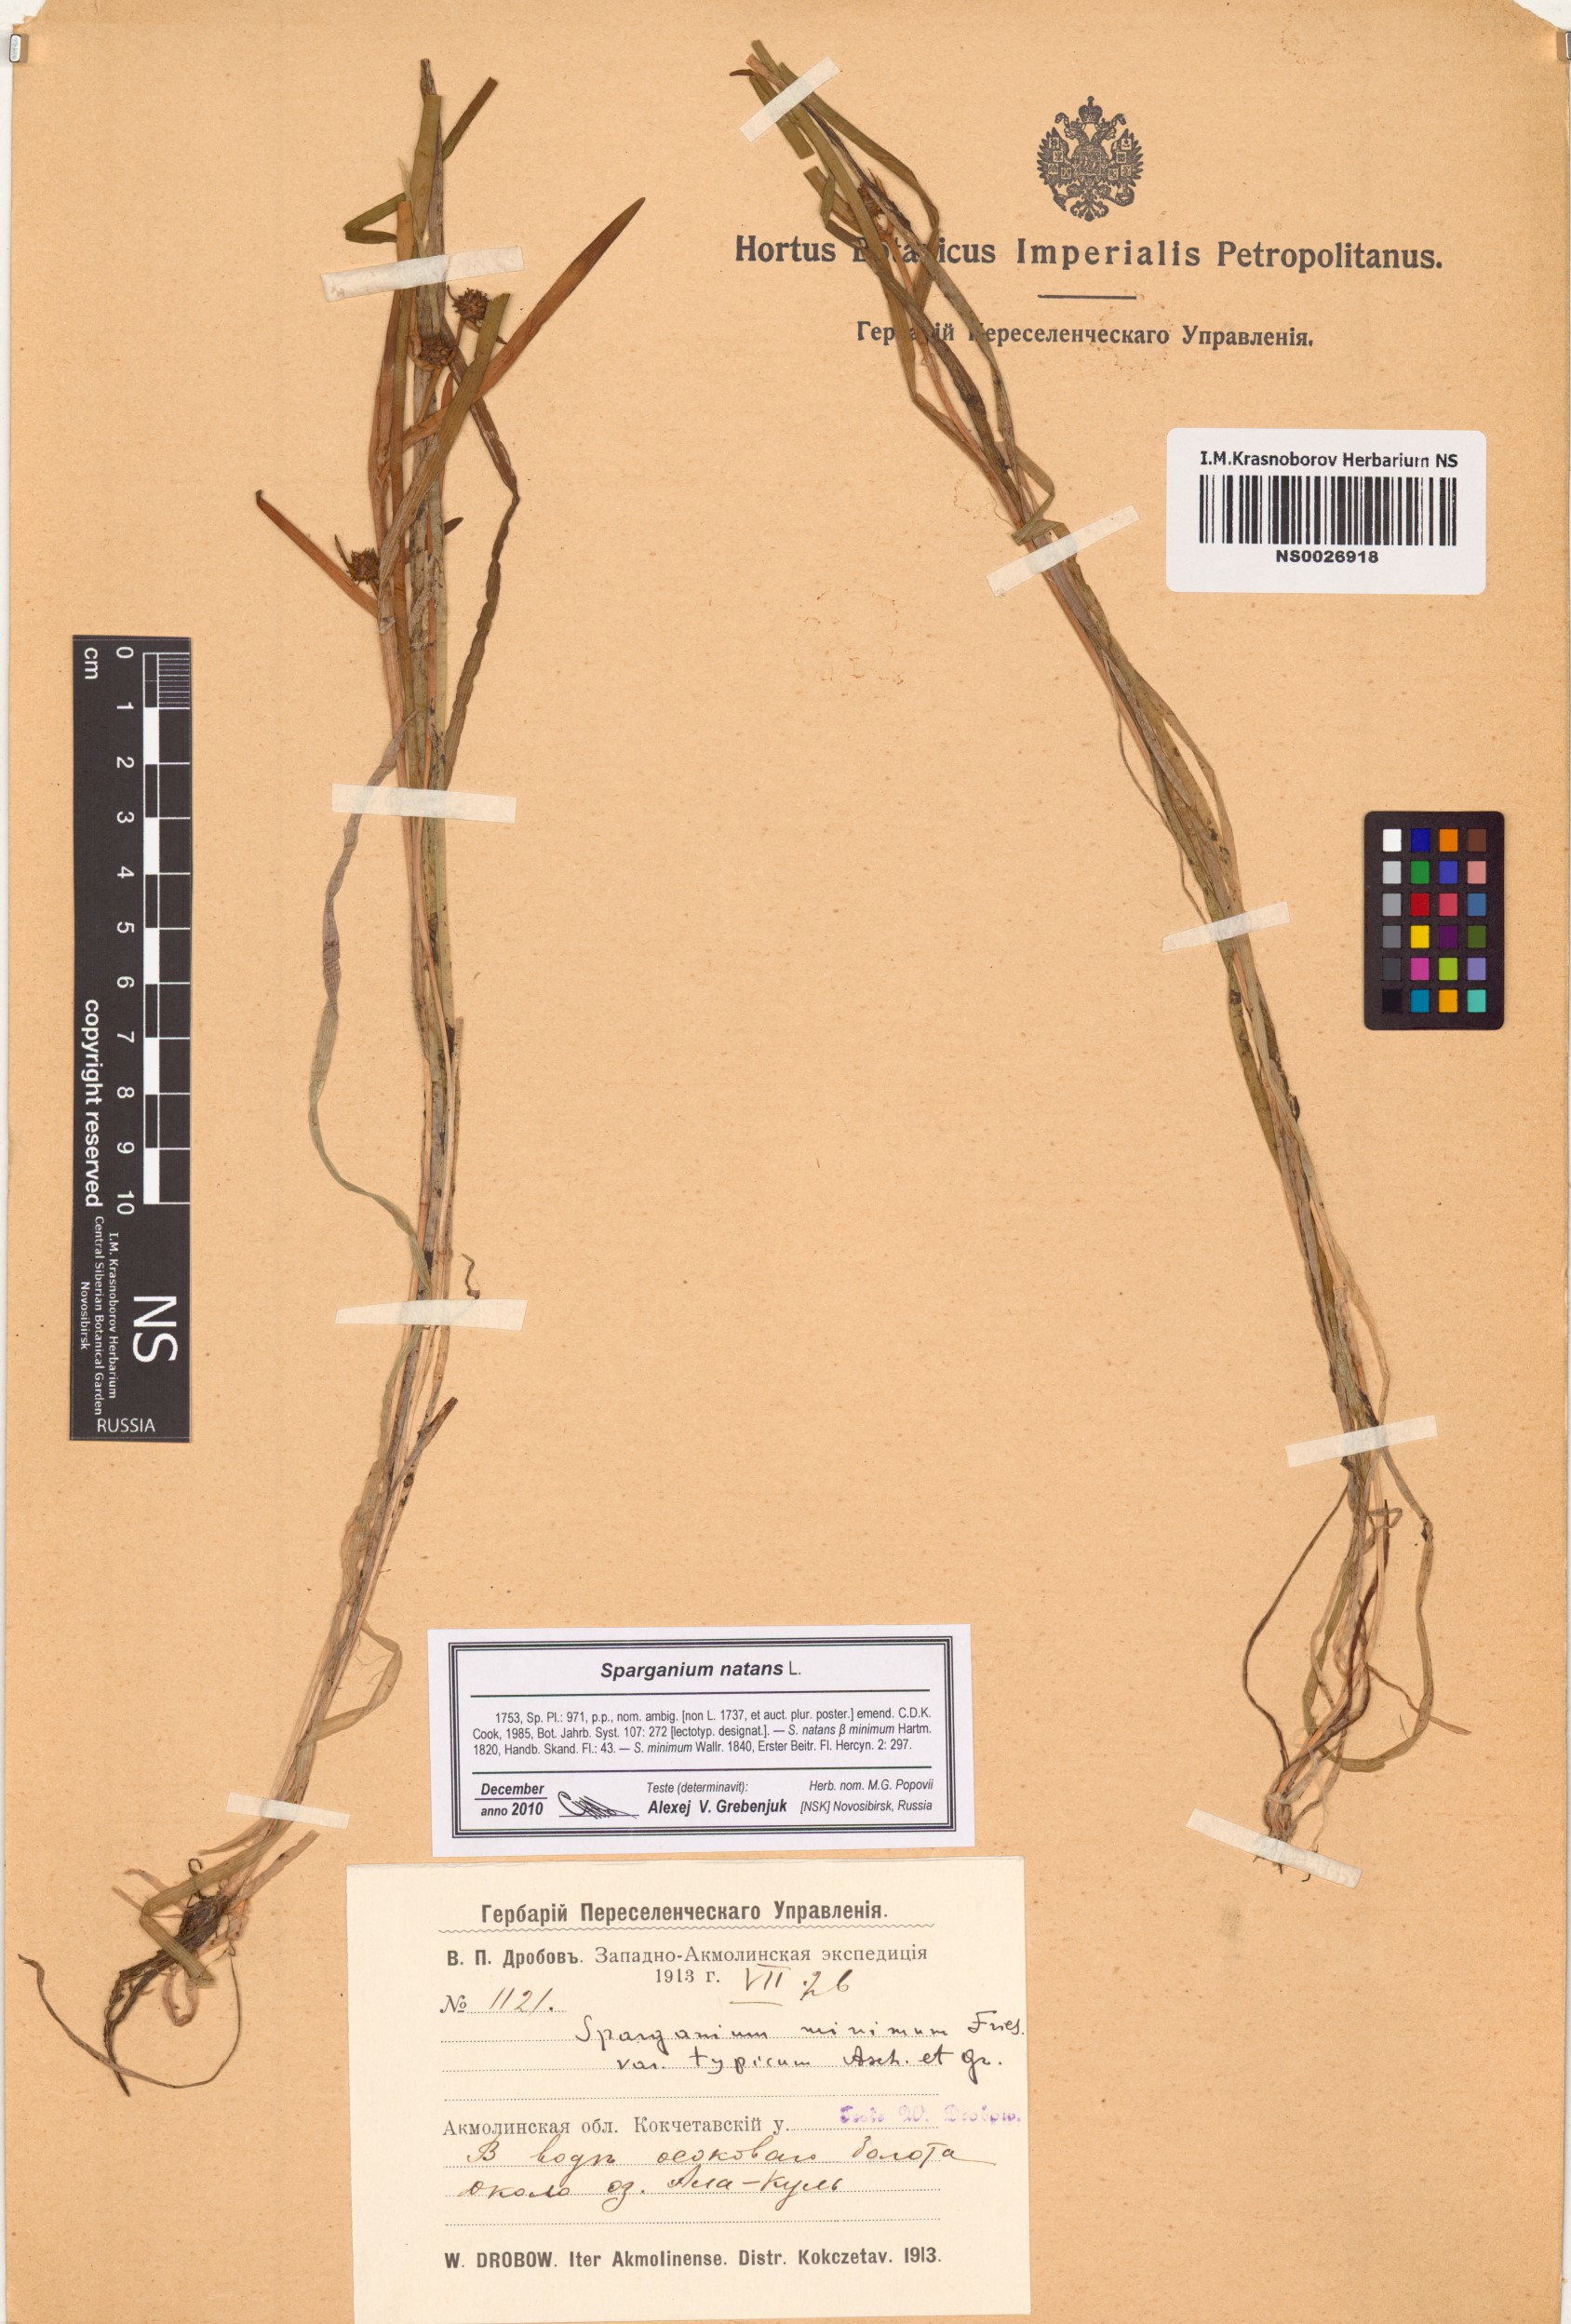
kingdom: Plantae
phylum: Tracheophyta
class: Liliopsida
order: Poales
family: Typhaceae
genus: Sparganium
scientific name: Sparganium natans
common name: Least bur-reed
